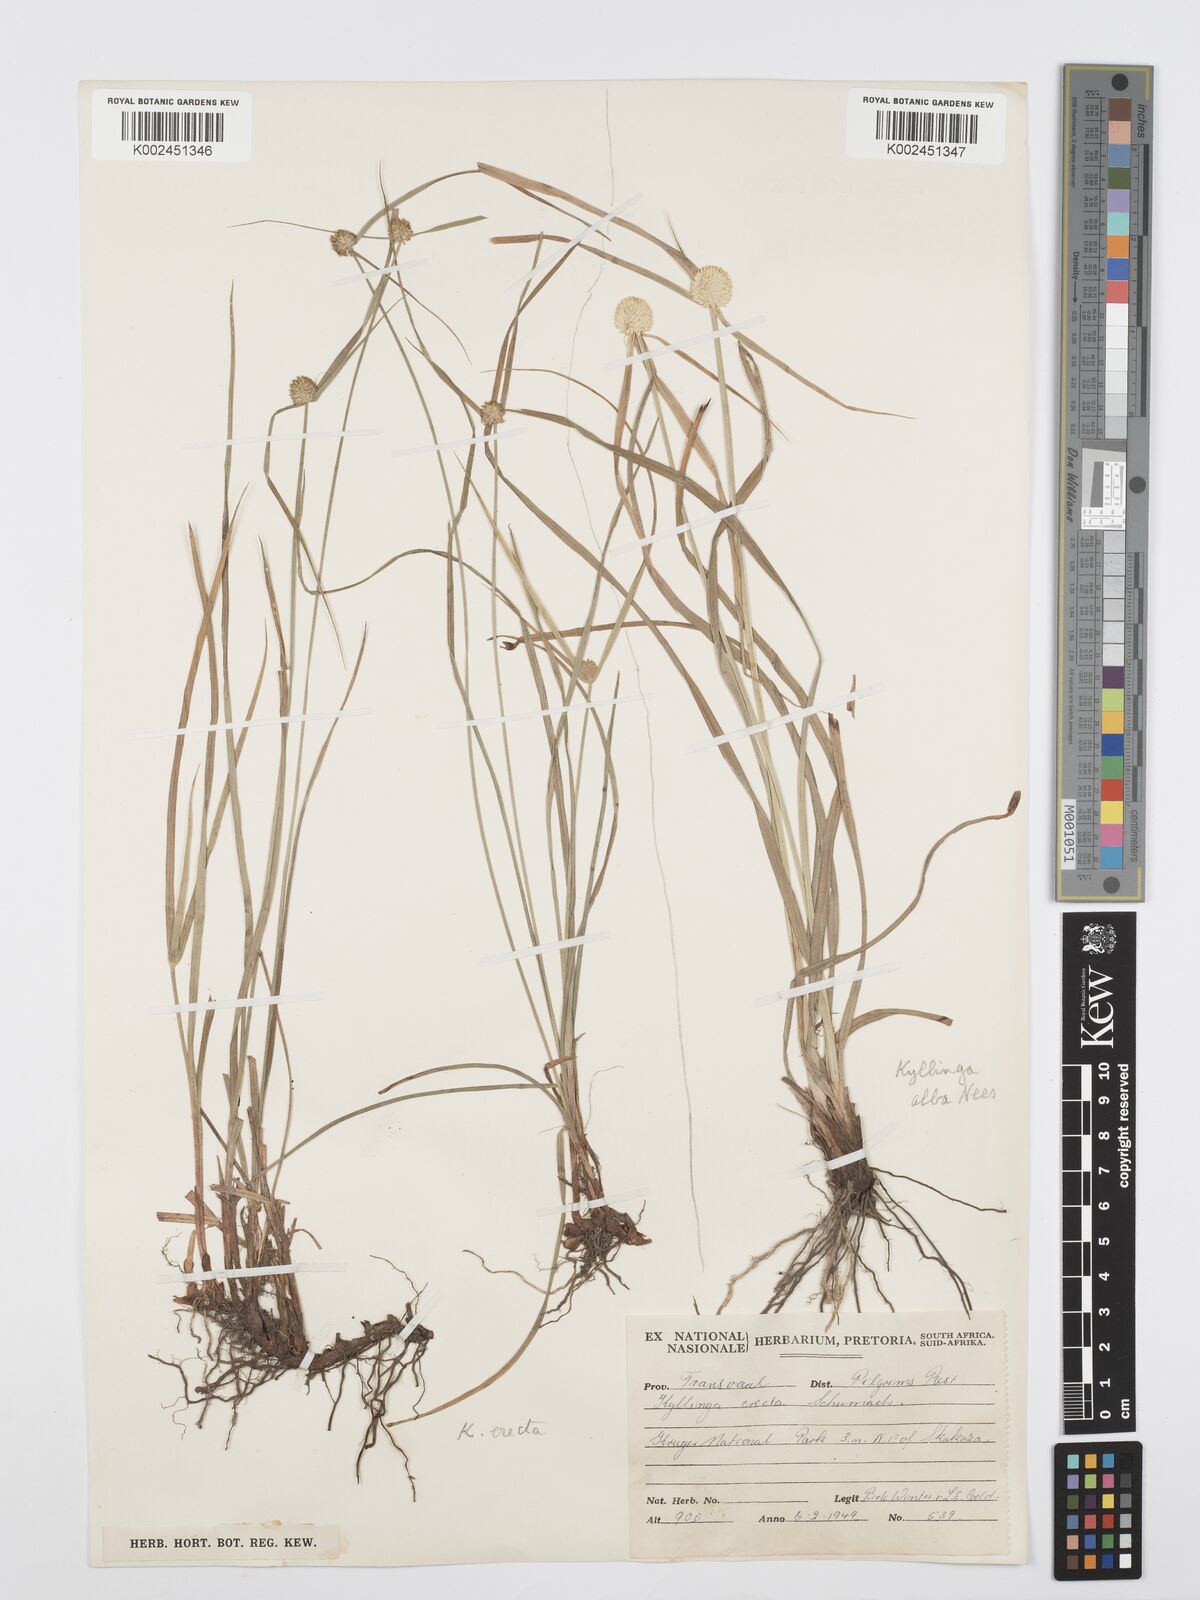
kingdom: Plantae
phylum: Tracheophyta
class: Liliopsida
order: Poales
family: Cyperaceae
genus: Cyperus
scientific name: Cyperus
